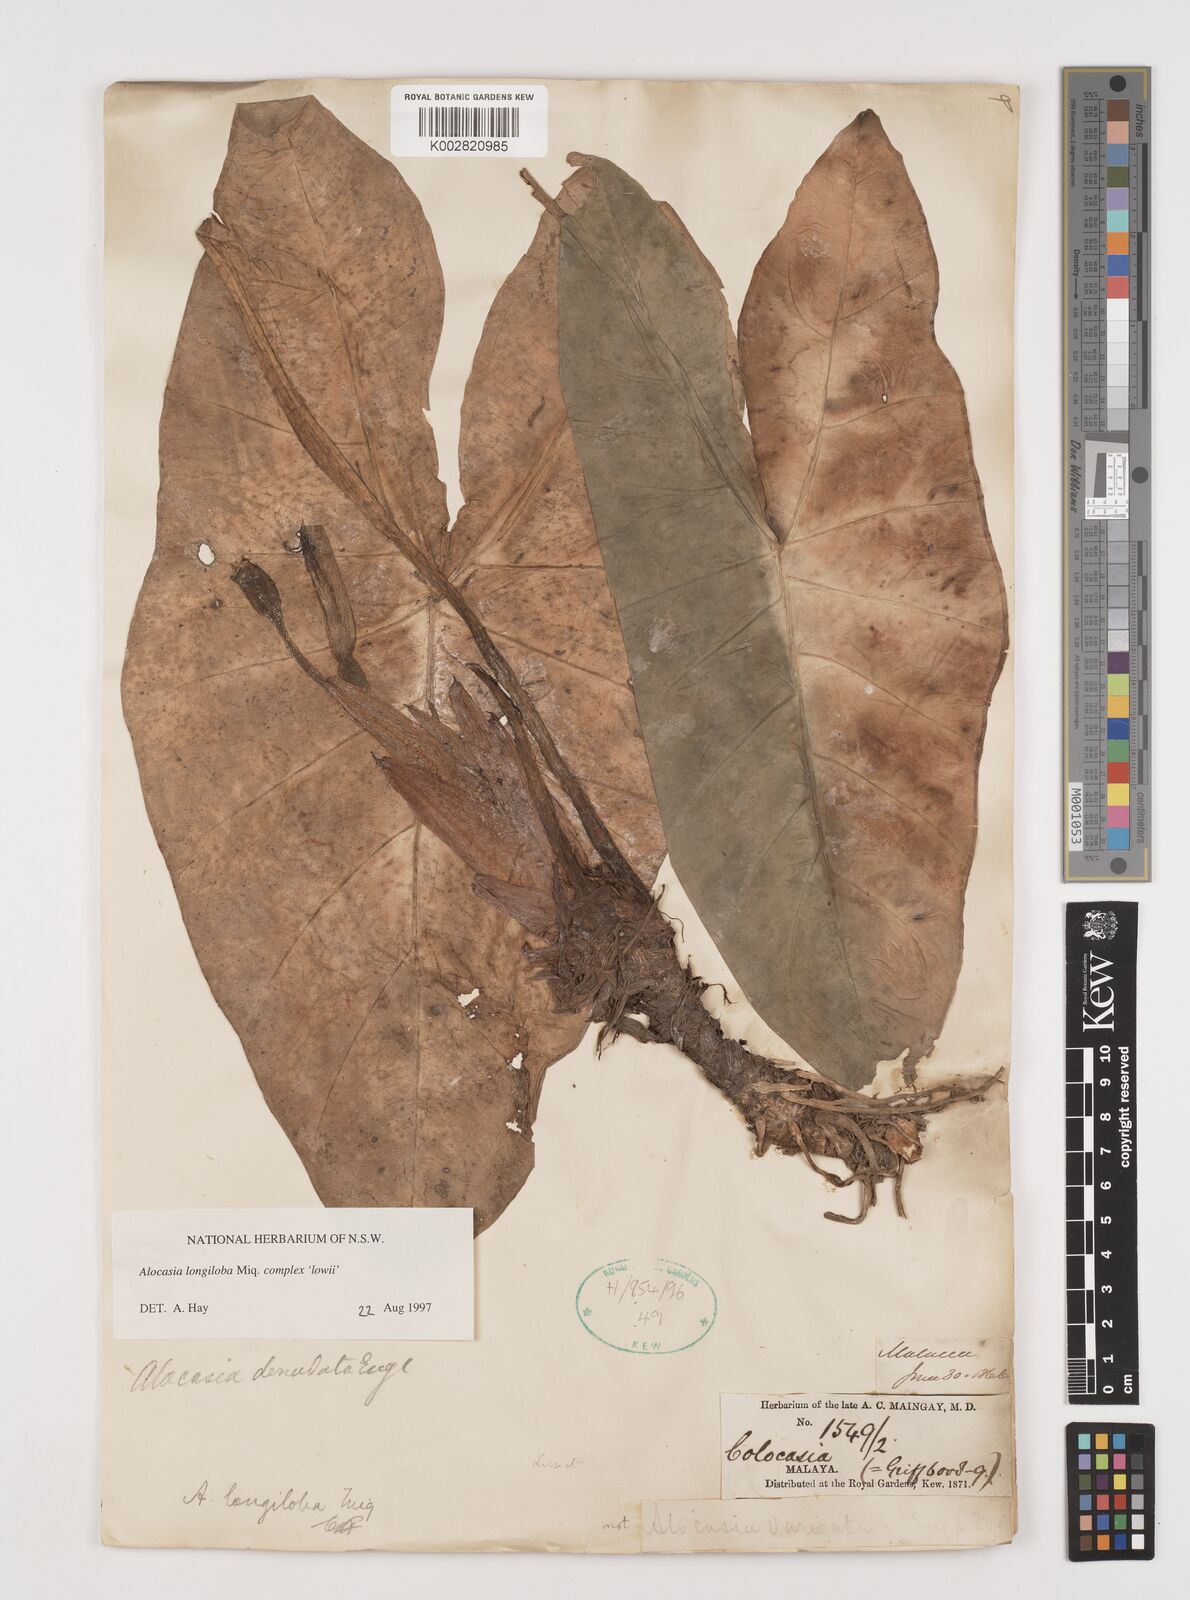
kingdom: Plantae
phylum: Tracheophyta
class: Liliopsida
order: Alismatales
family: Araceae
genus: Alocasia
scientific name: Alocasia longiloba
